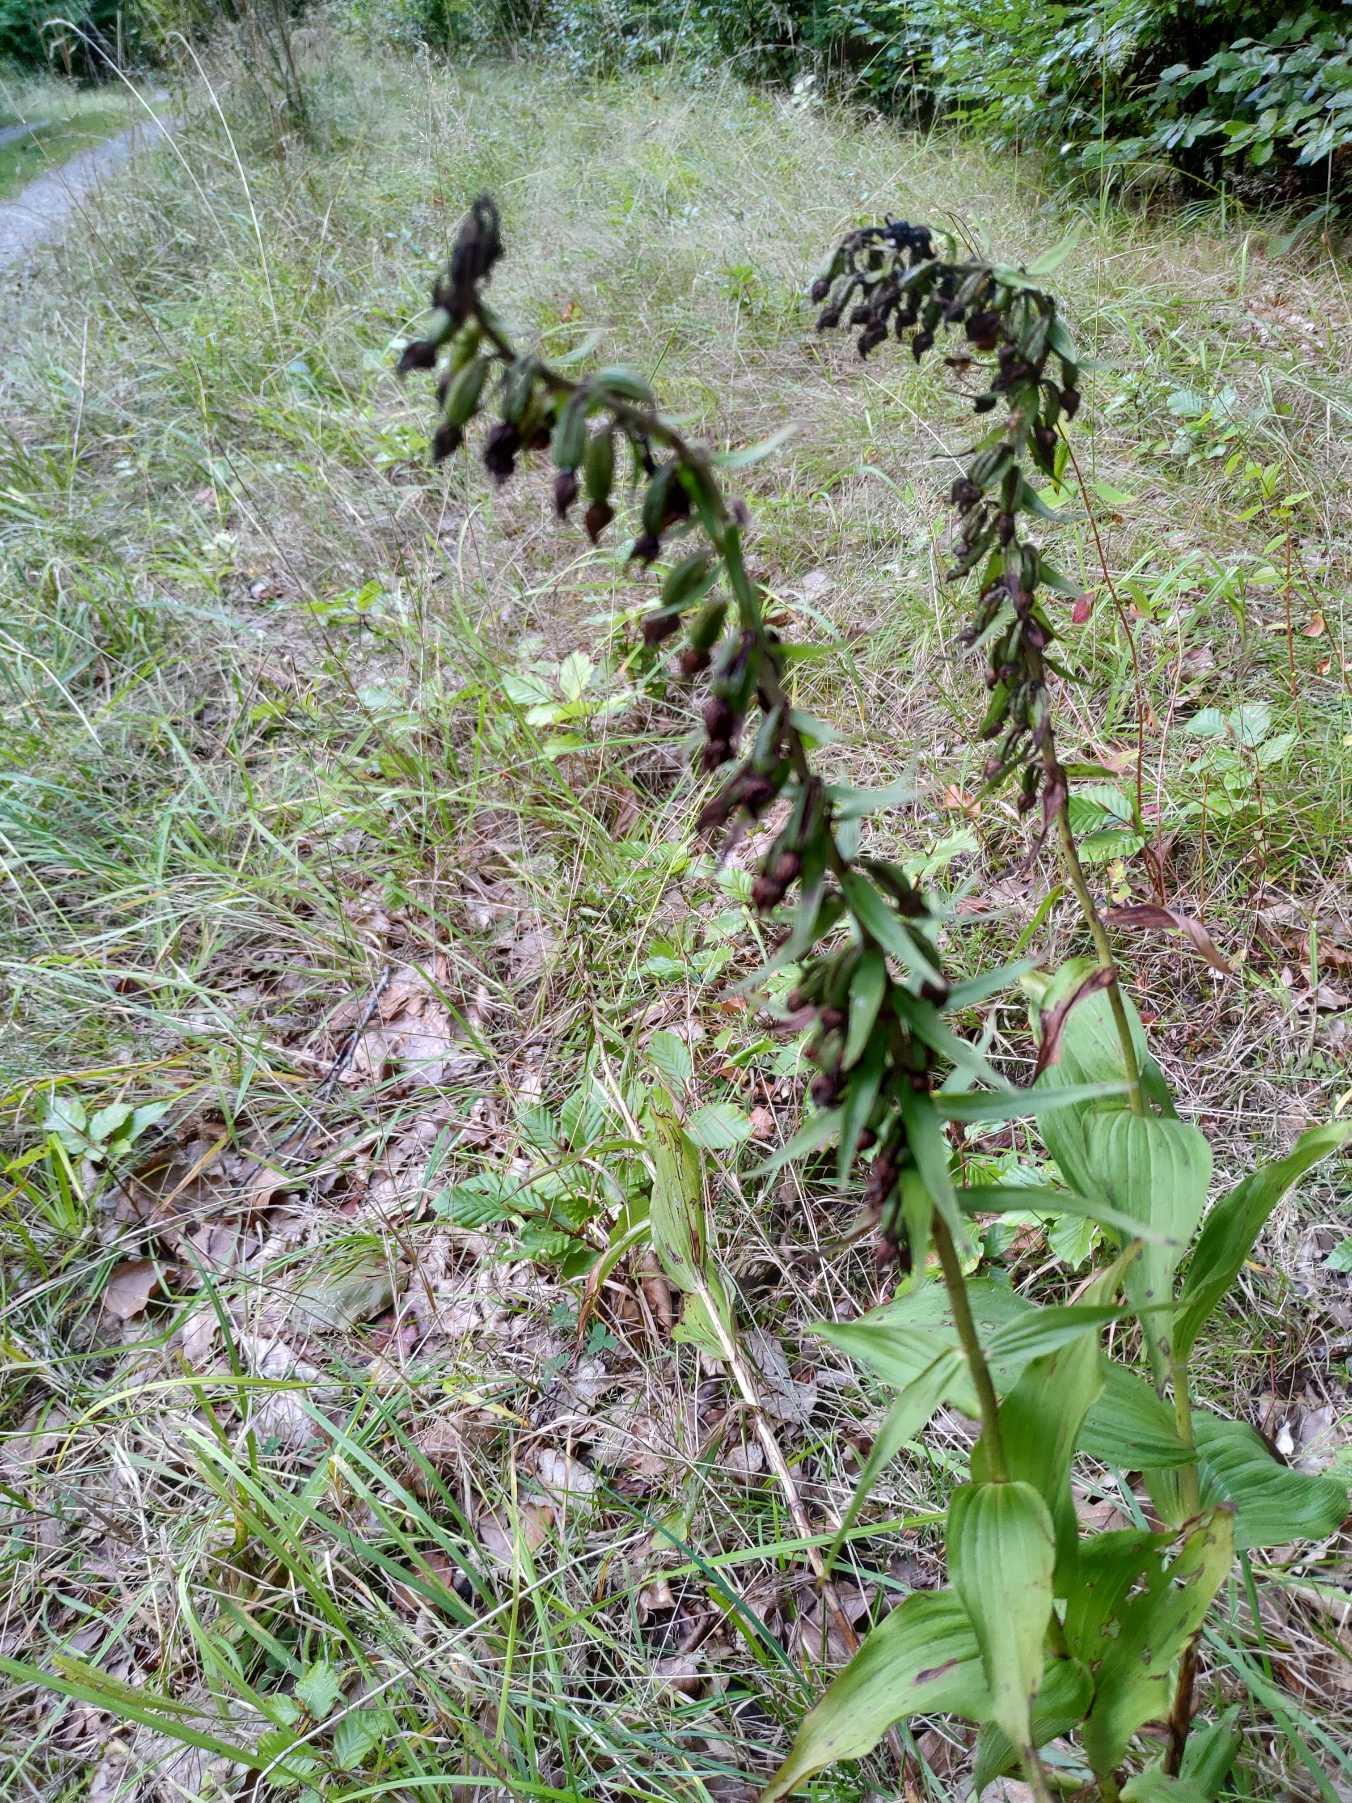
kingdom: Plantae
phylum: Tracheophyta
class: Liliopsida
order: Asparagales
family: Orchidaceae
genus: Epipactis
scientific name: Epipactis helleborine
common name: Skov-hullæbe
